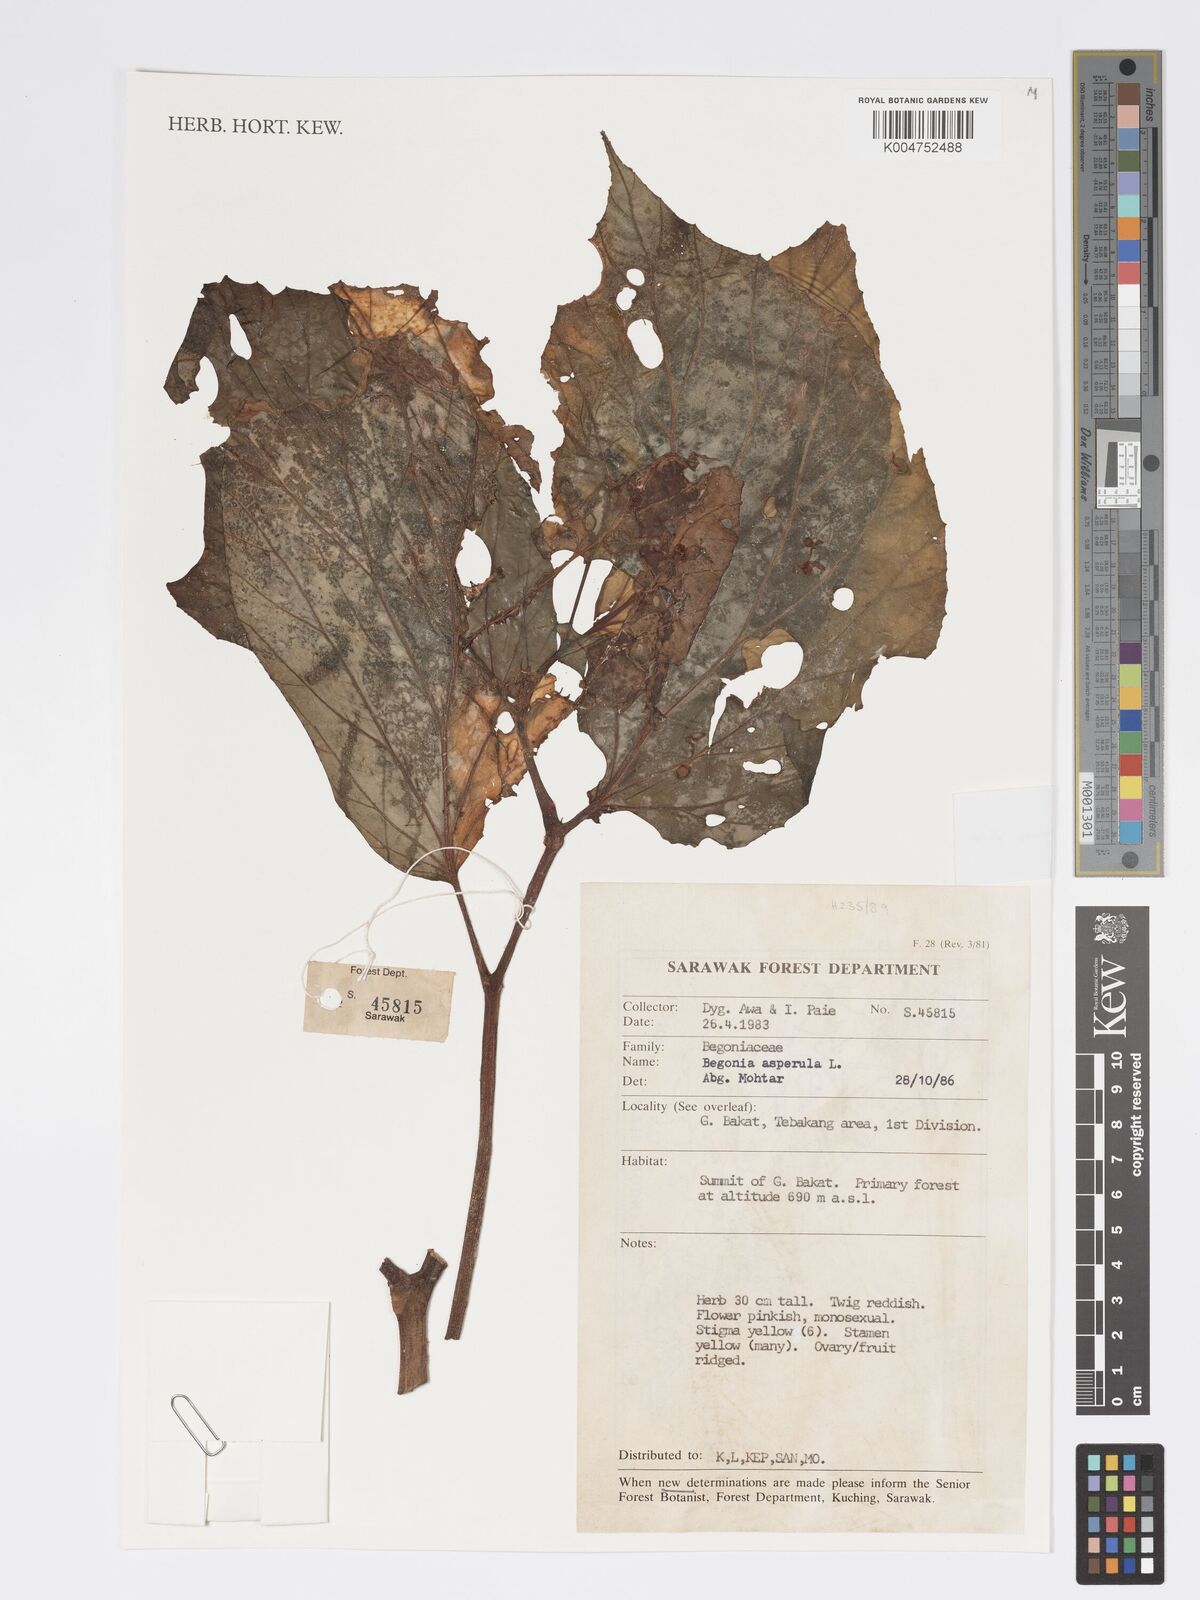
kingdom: Plantae
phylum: Tracheophyta
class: Magnoliopsida
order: Cucurbitales
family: Begoniaceae
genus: Begonia
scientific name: Begonia paoana
